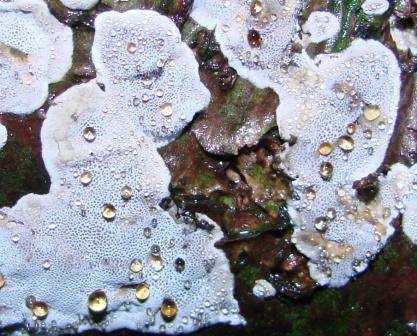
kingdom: Fungi
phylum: Basidiomycota
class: Agaricomycetes
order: Polyporales
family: Phanerochaetaceae
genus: Bjerkandera
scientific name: Bjerkandera adusta
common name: sveden sodporesvamp
